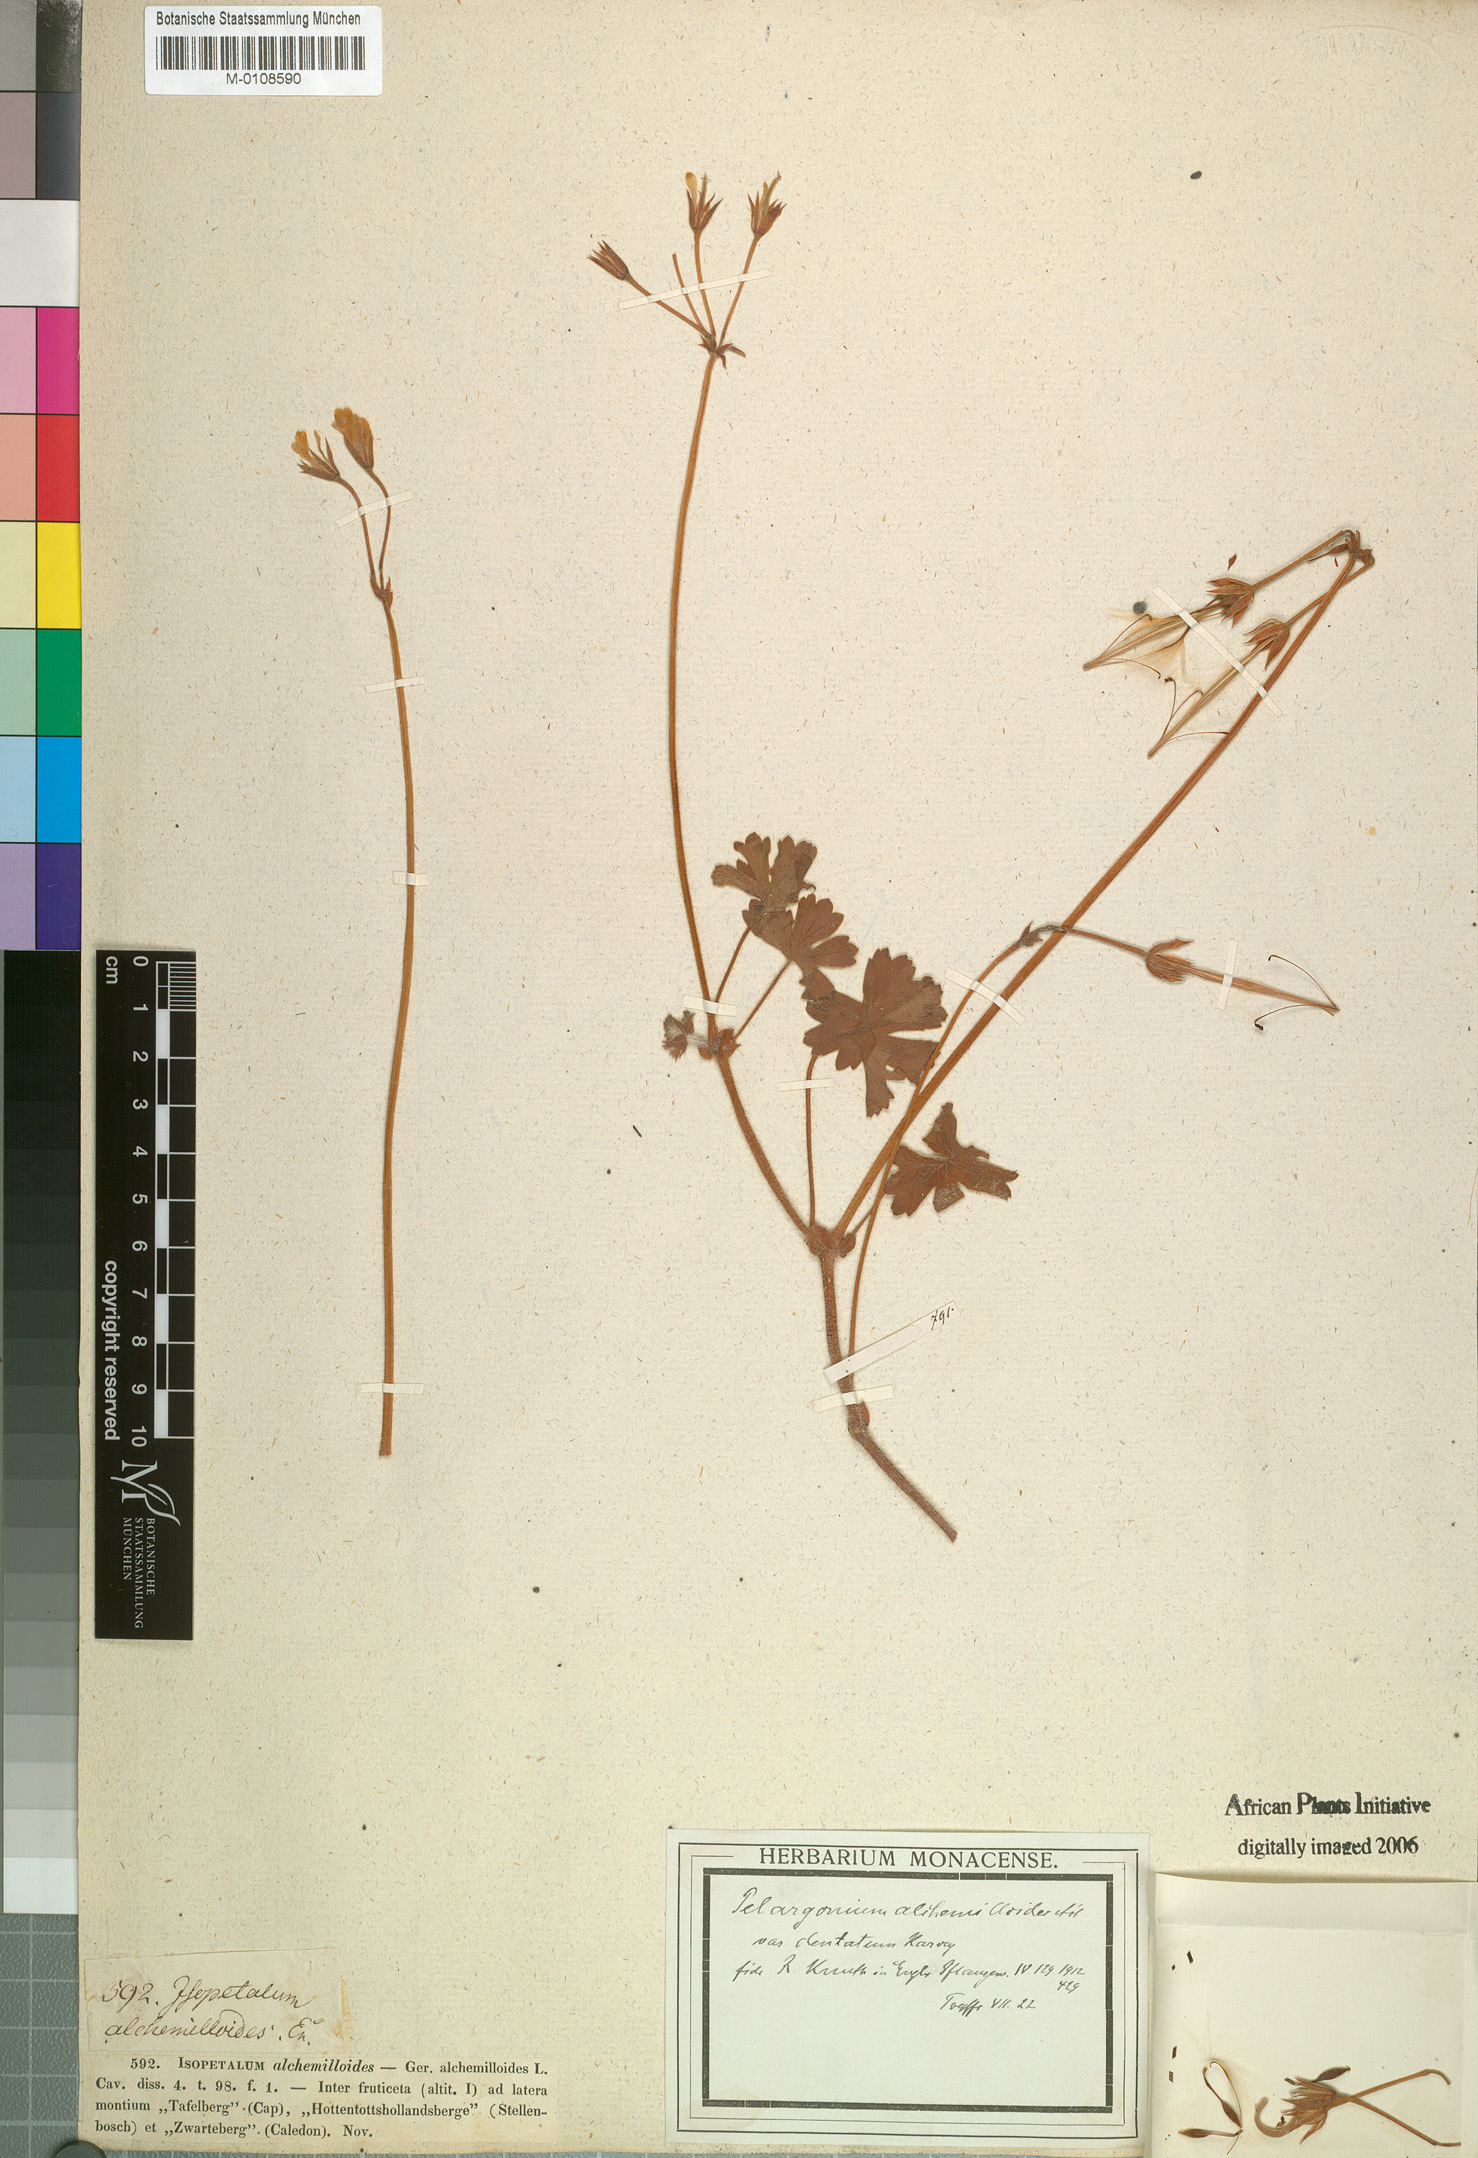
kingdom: Plantae
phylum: Tracheophyta
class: Magnoliopsida
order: Geraniales
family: Geraniaceae
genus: Pelargonium
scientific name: Pelargonium alchemilloides
